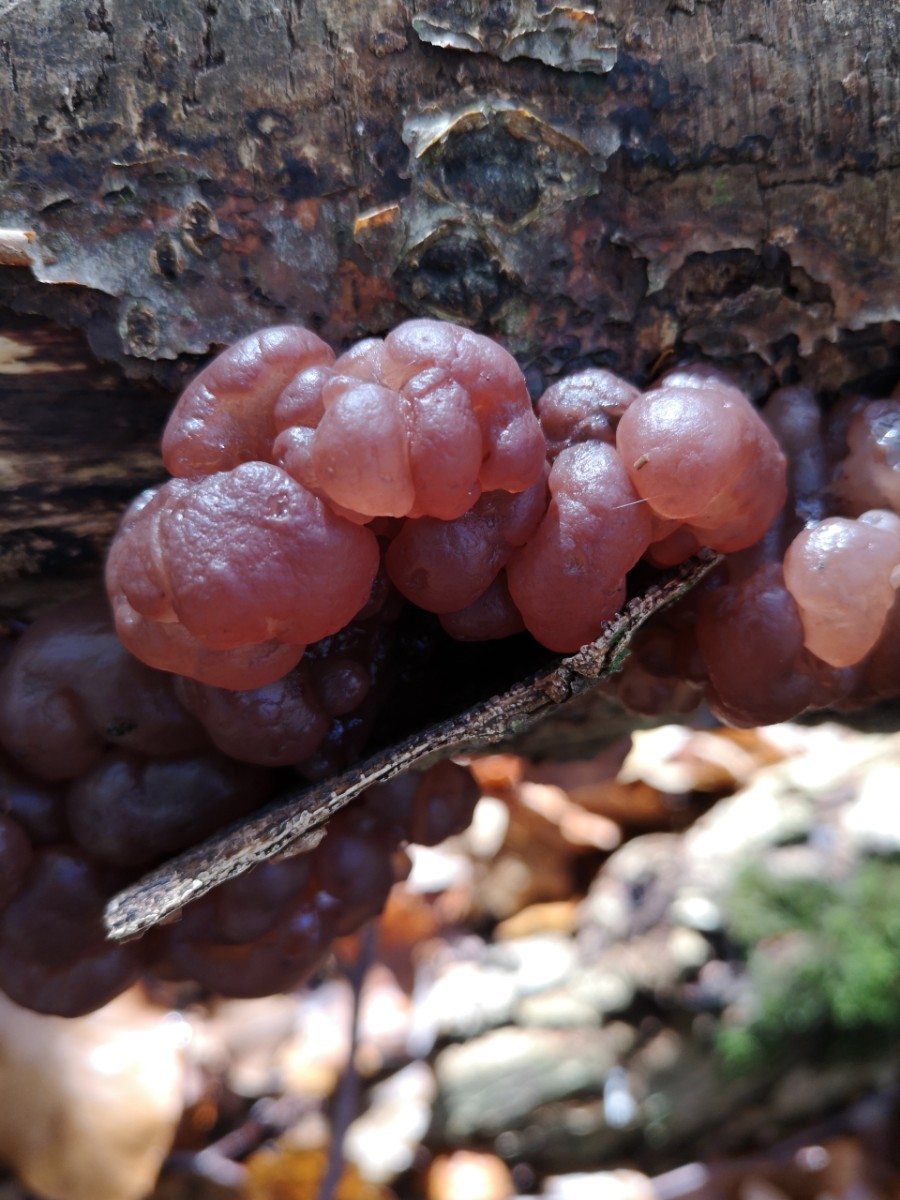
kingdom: Fungi
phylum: Ascomycota
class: Leotiomycetes
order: Helotiales
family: Gelatinodiscaceae
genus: Ascotremella
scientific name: Ascotremella faginea
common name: hjerne-bævreskive
